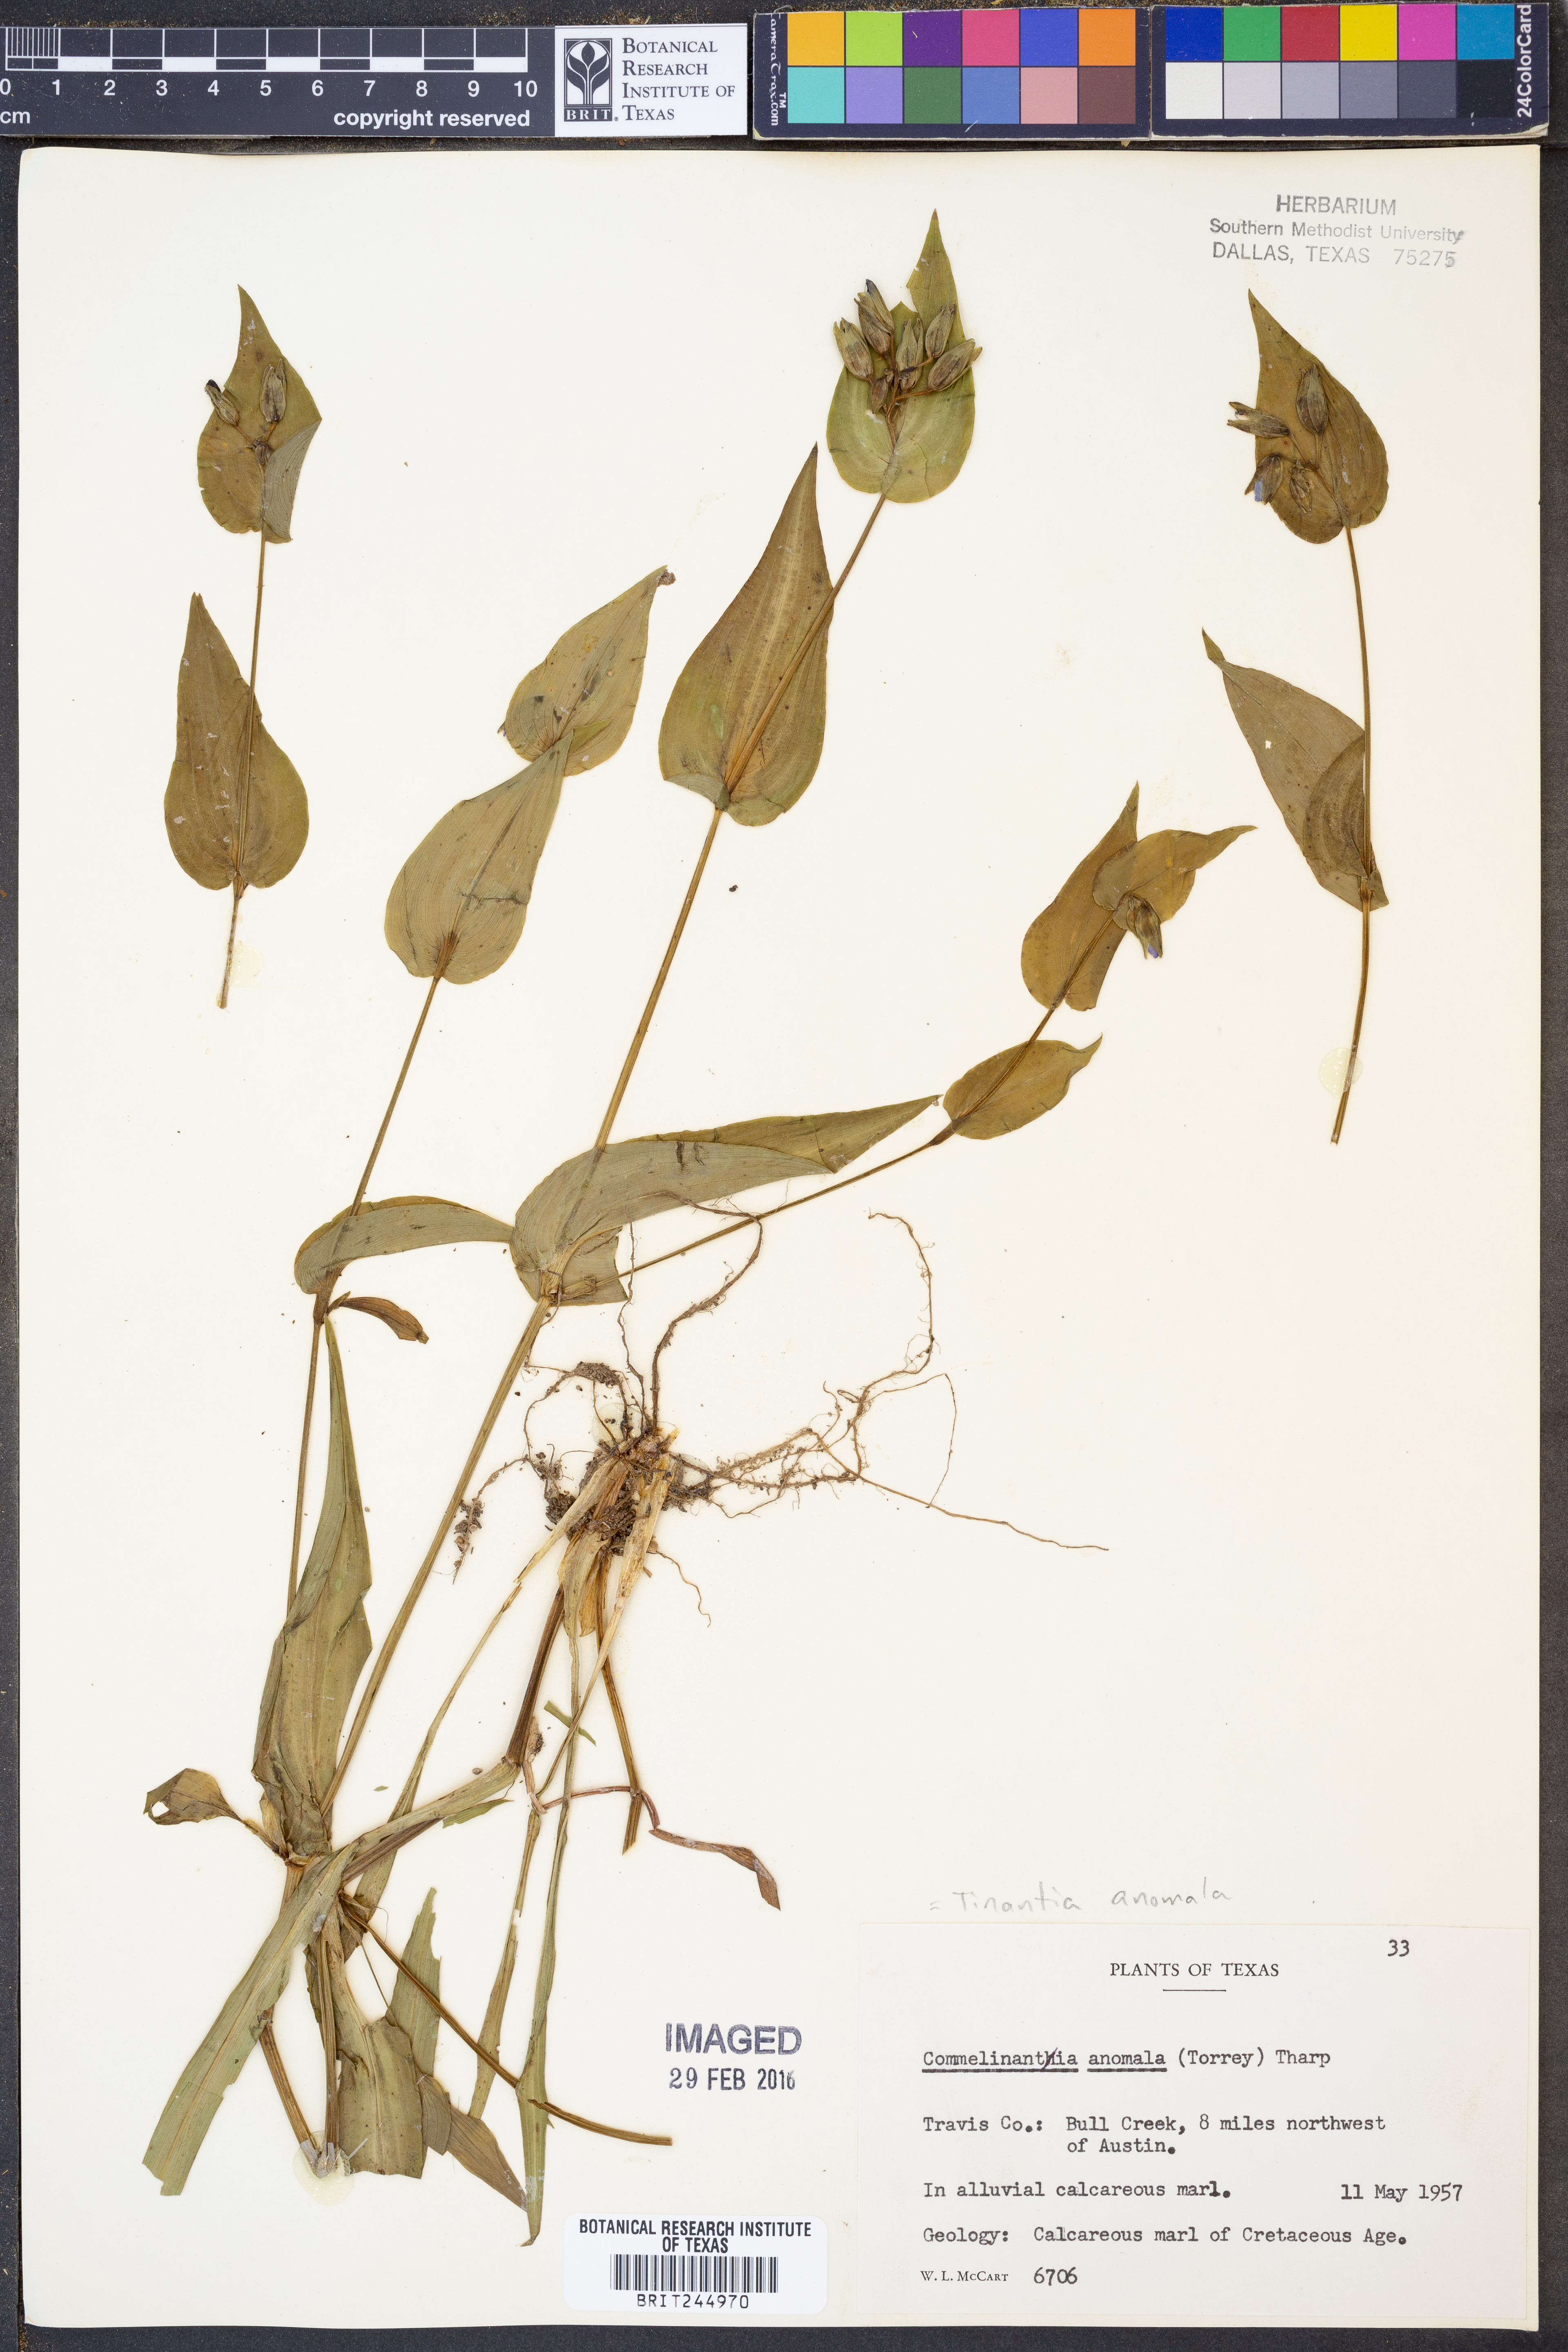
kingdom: Plantae
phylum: Tracheophyta
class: Liliopsida
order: Commelinales
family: Commelinaceae
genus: Tinantia
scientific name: Tinantia anomala
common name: False dayflower
